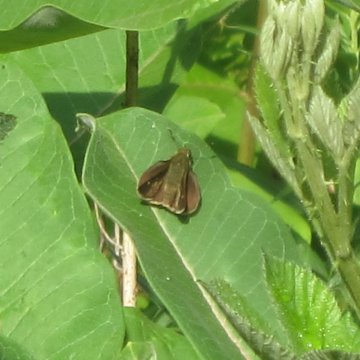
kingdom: Animalia
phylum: Arthropoda
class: Insecta
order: Lepidoptera
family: Hesperiidae
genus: Euphyes
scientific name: Euphyes vestris
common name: Dun Skipper
